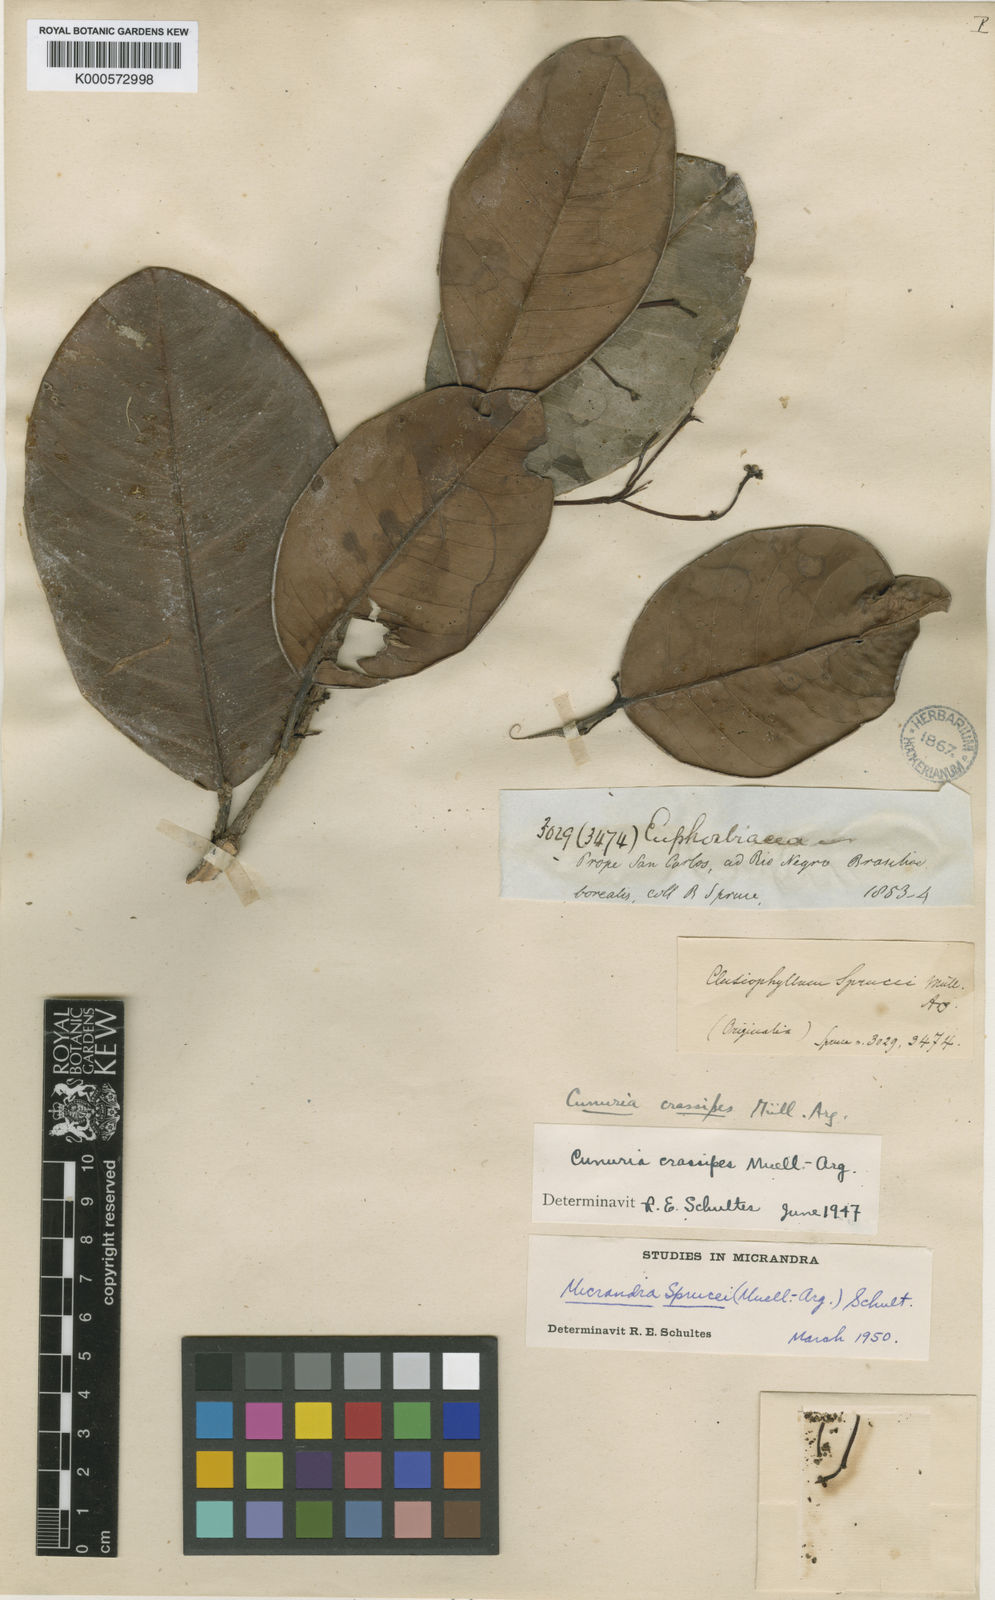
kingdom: Plantae
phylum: Tracheophyta
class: Magnoliopsida
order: Malpighiales
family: Euphorbiaceae
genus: Micrandra
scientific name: Micrandra
